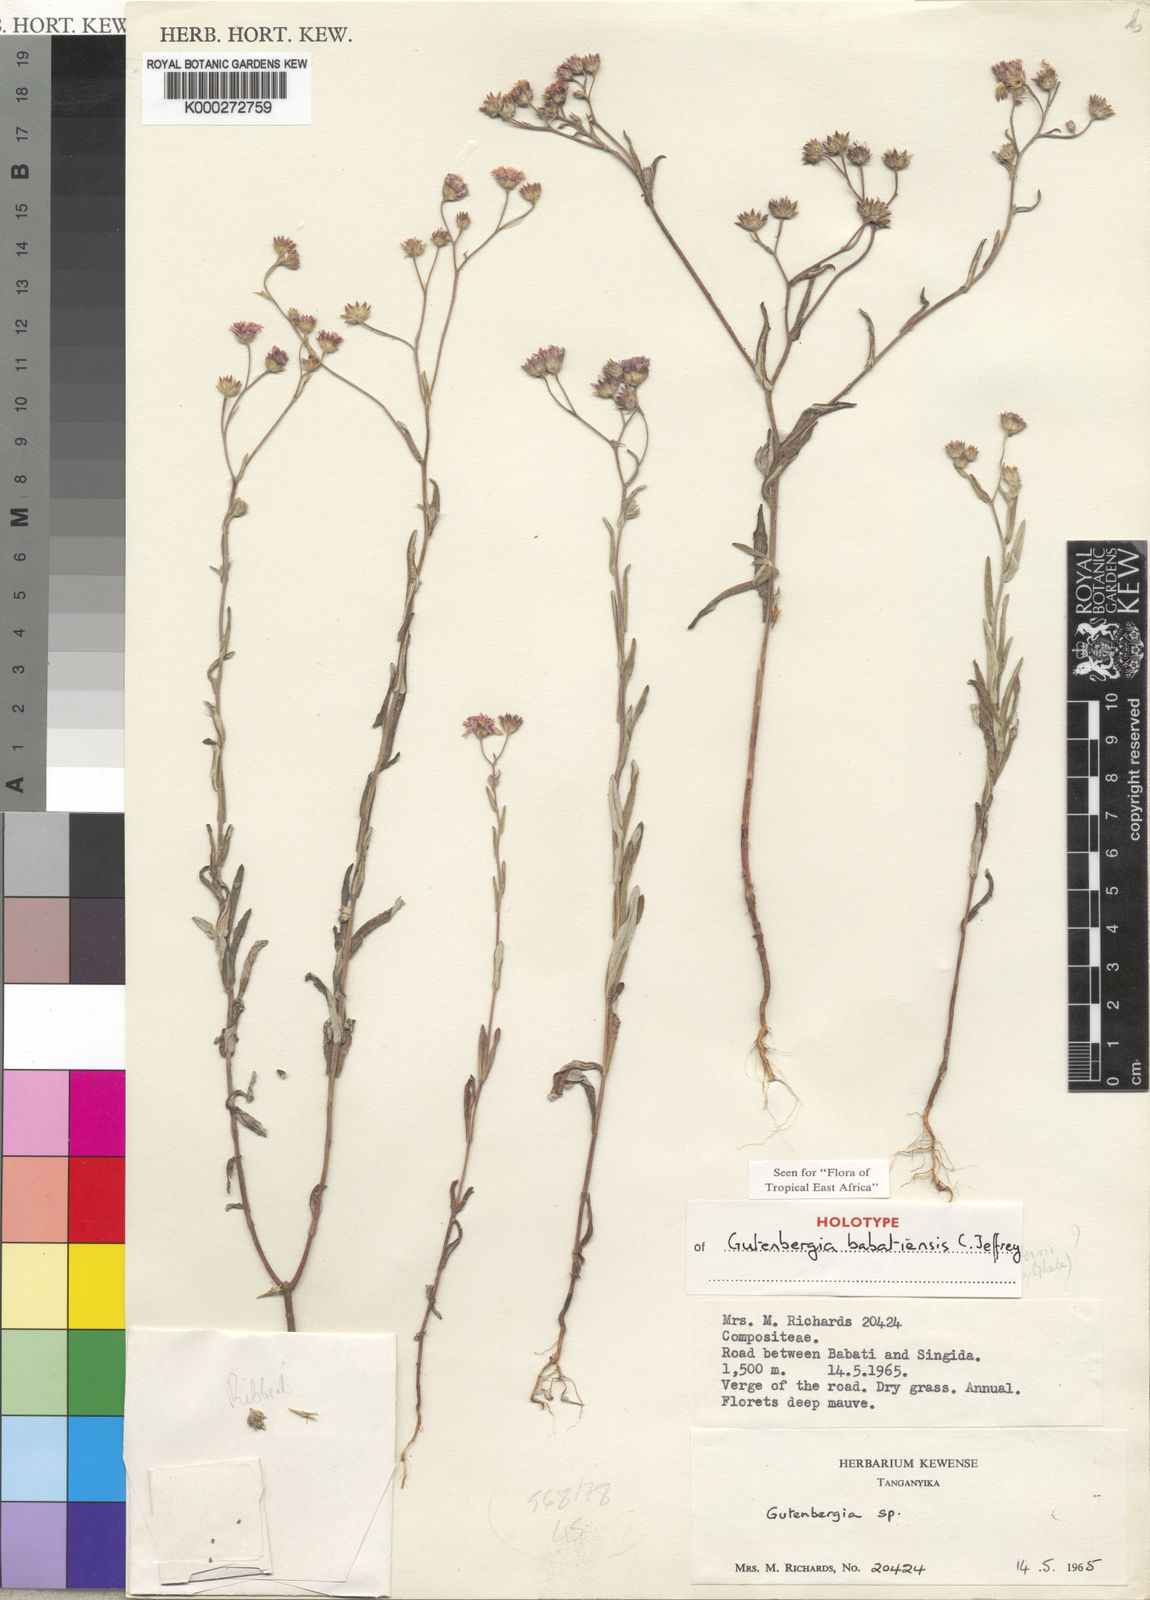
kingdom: Plantae
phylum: Tracheophyta
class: Magnoliopsida
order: Asterales
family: Asteraceae
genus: Gutenbergia
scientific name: Gutenbergia babatiensis
